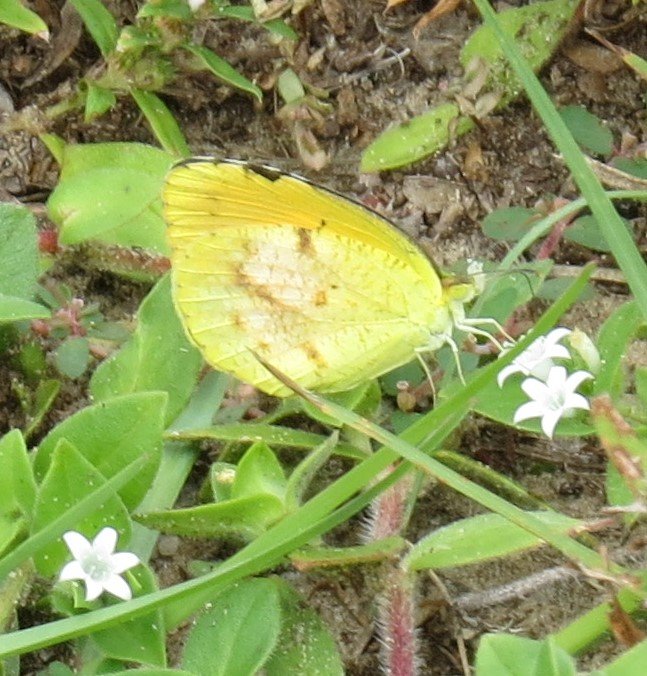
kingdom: Animalia
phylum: Arthropoda
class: Insecta
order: Lepidoptera
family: Pieridae
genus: Abaeis
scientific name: Abaeis nicippe
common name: Sleepy Orange
